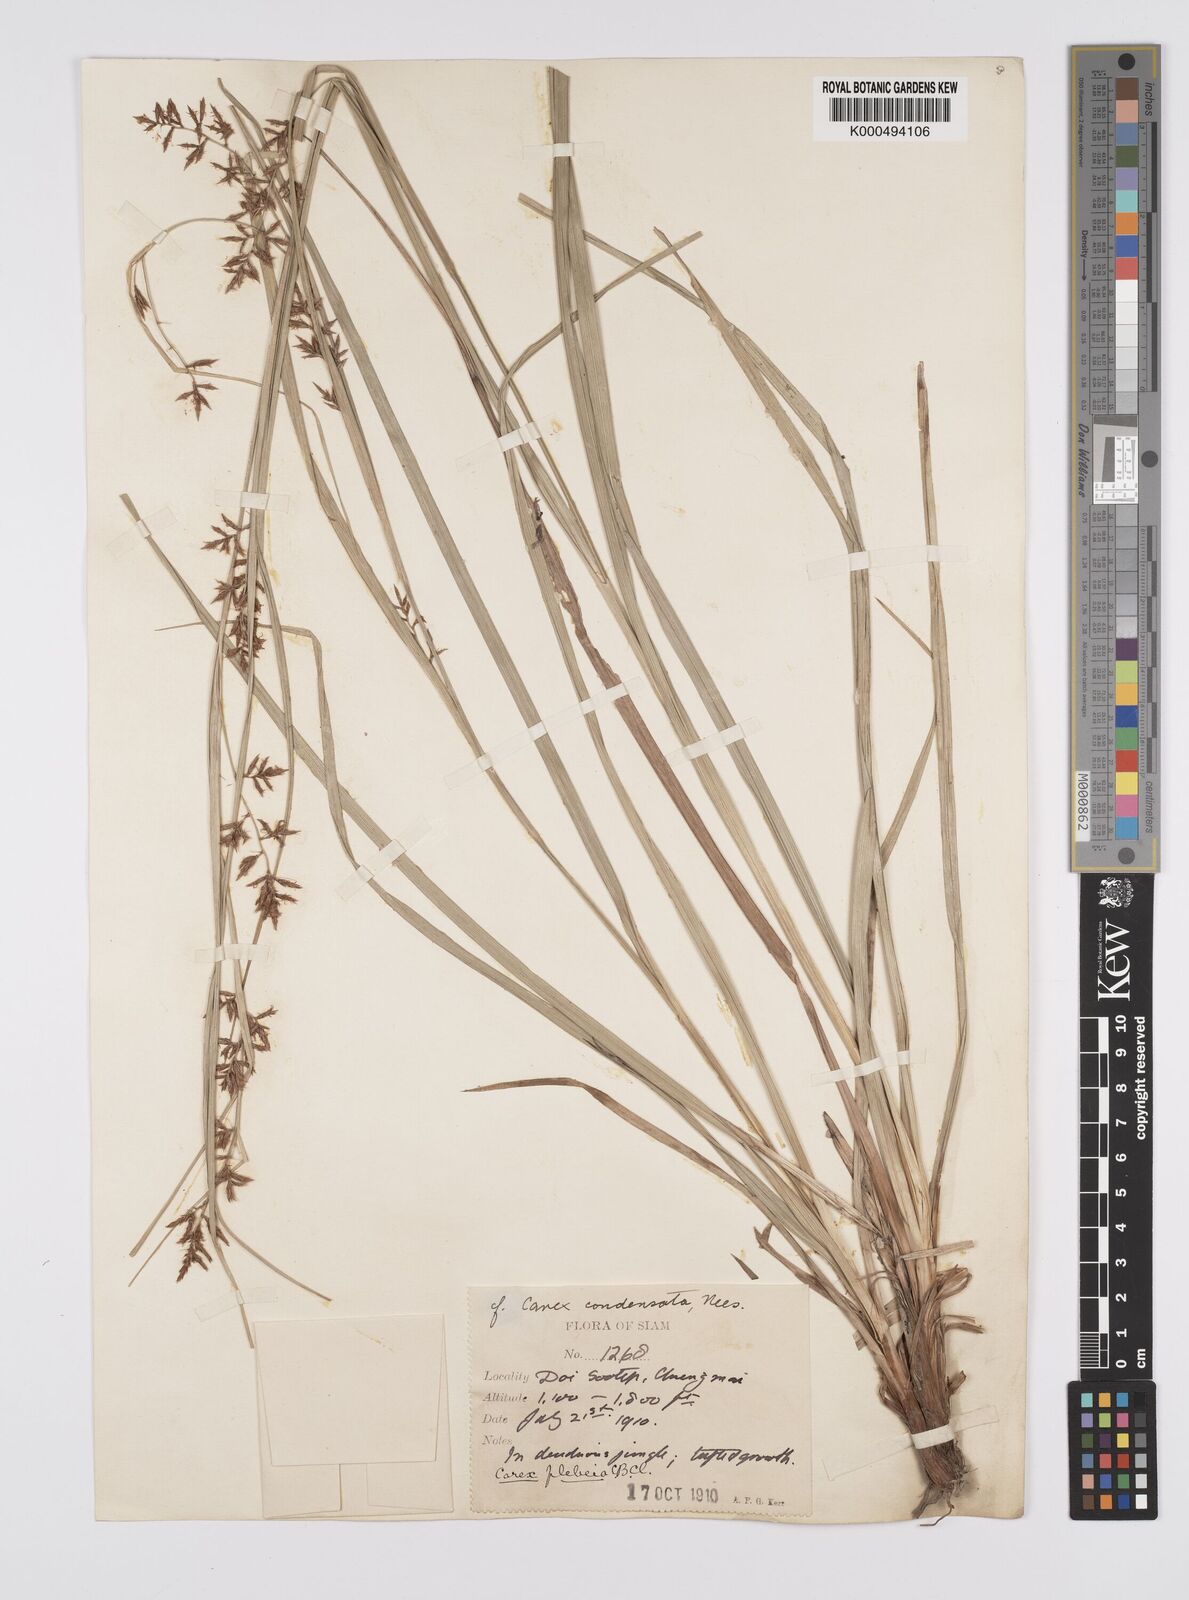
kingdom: Plantae
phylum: Tracheophyta
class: Liliopsida
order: Poales
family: Cyperaceae
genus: Carex
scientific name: Carex continua
